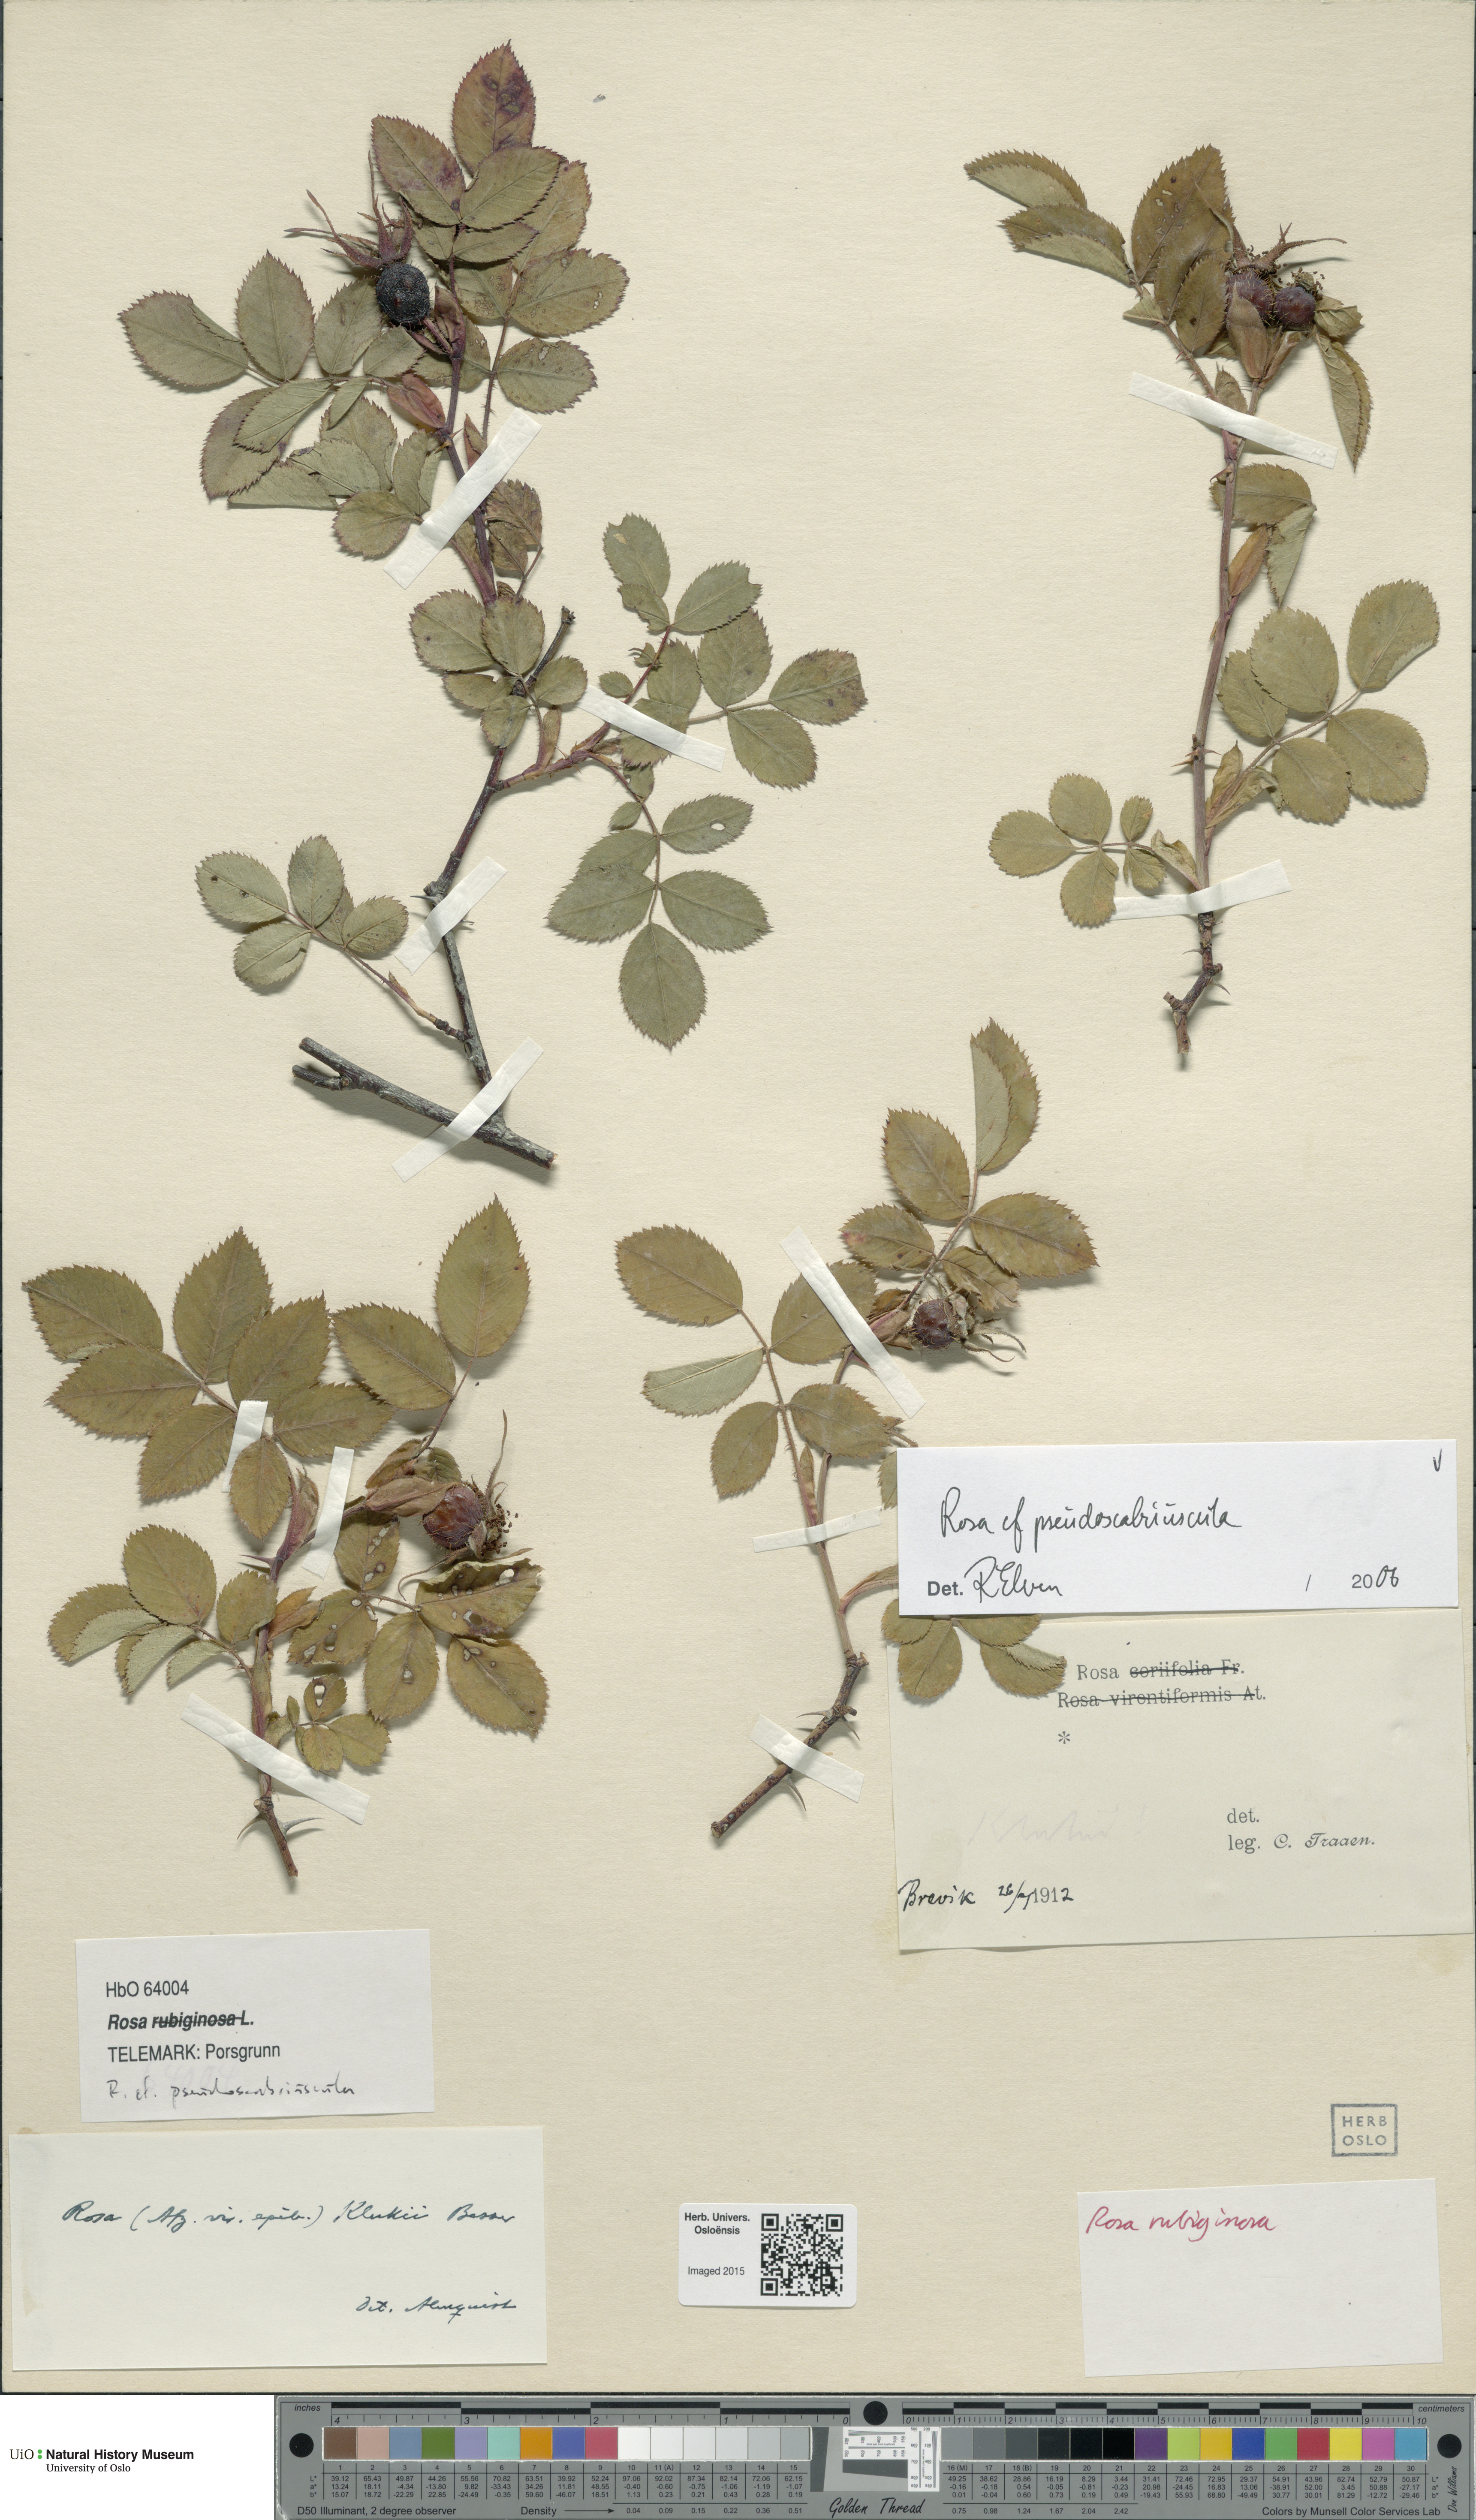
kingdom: Plantae
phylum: Tracheophyta
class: Magnoliopsida
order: Rosales
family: Rosaceae
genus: Rosa
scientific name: Rosa suberectiformis
